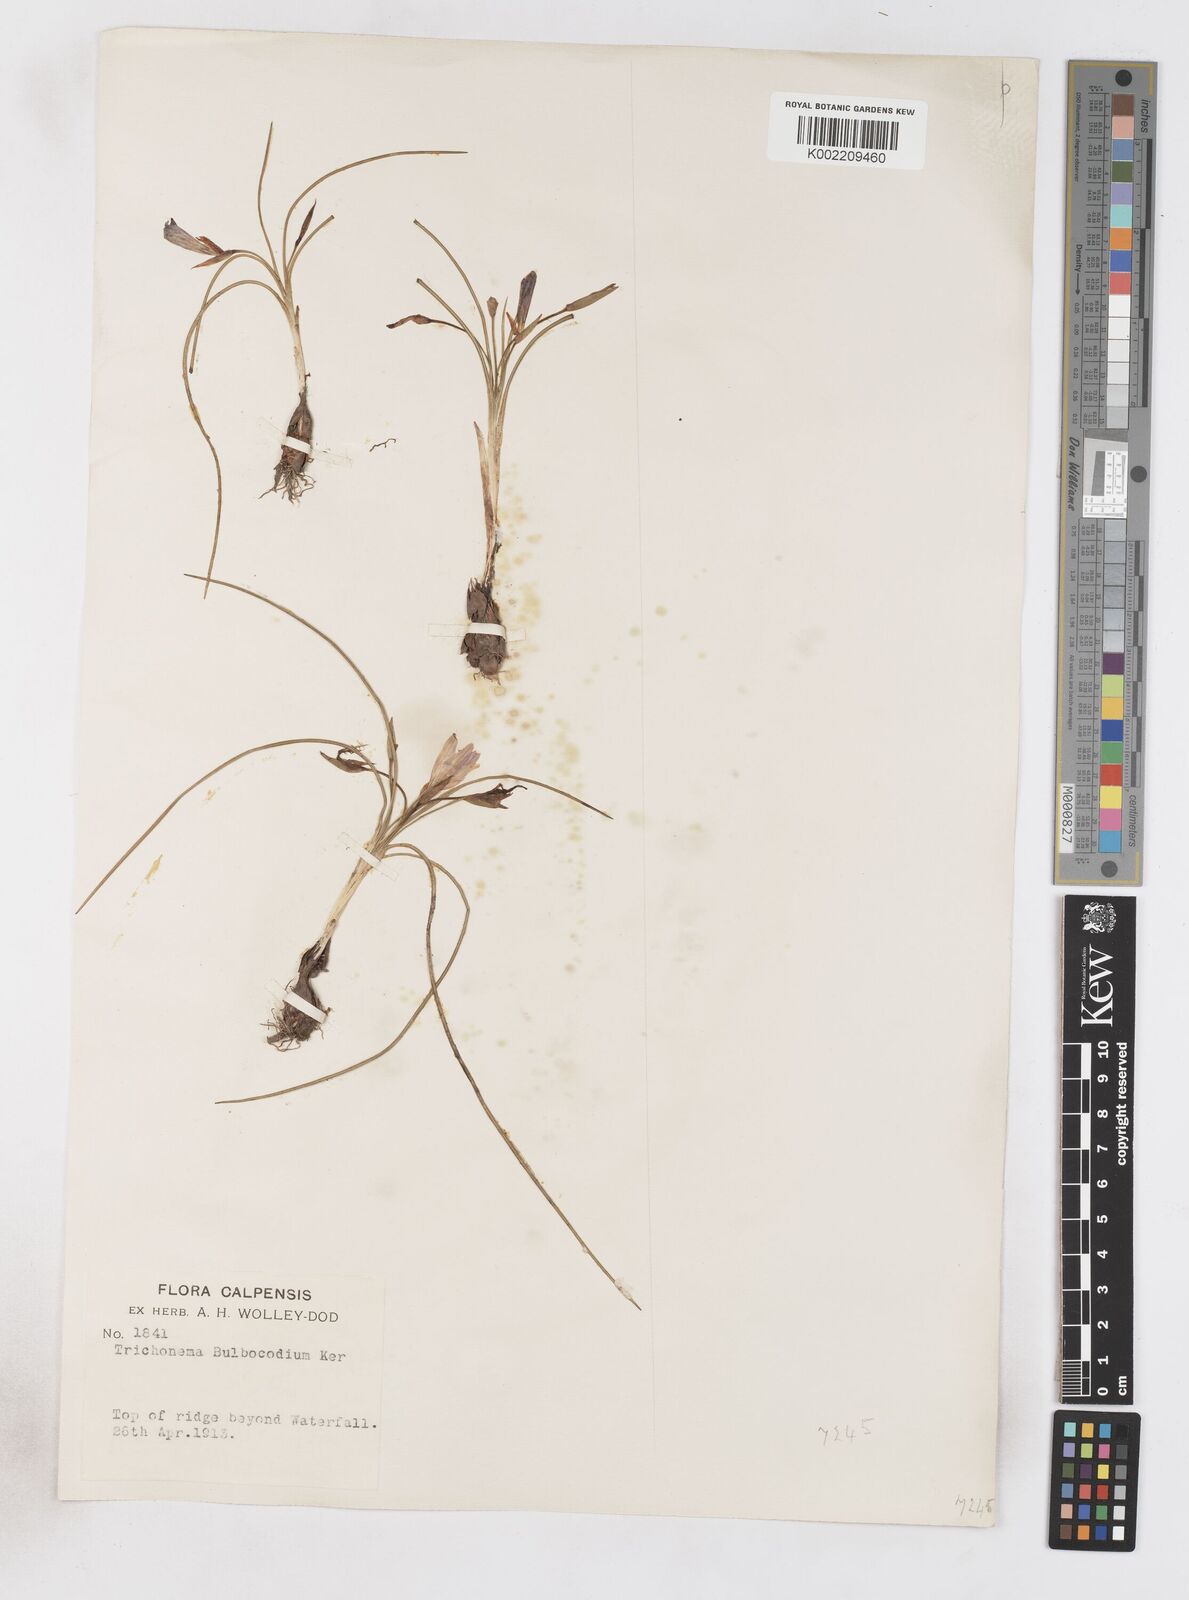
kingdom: Plantae
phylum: Tracheophyta
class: Liliopsida
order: Asparagales
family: Iridaceae
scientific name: Iridaceae
